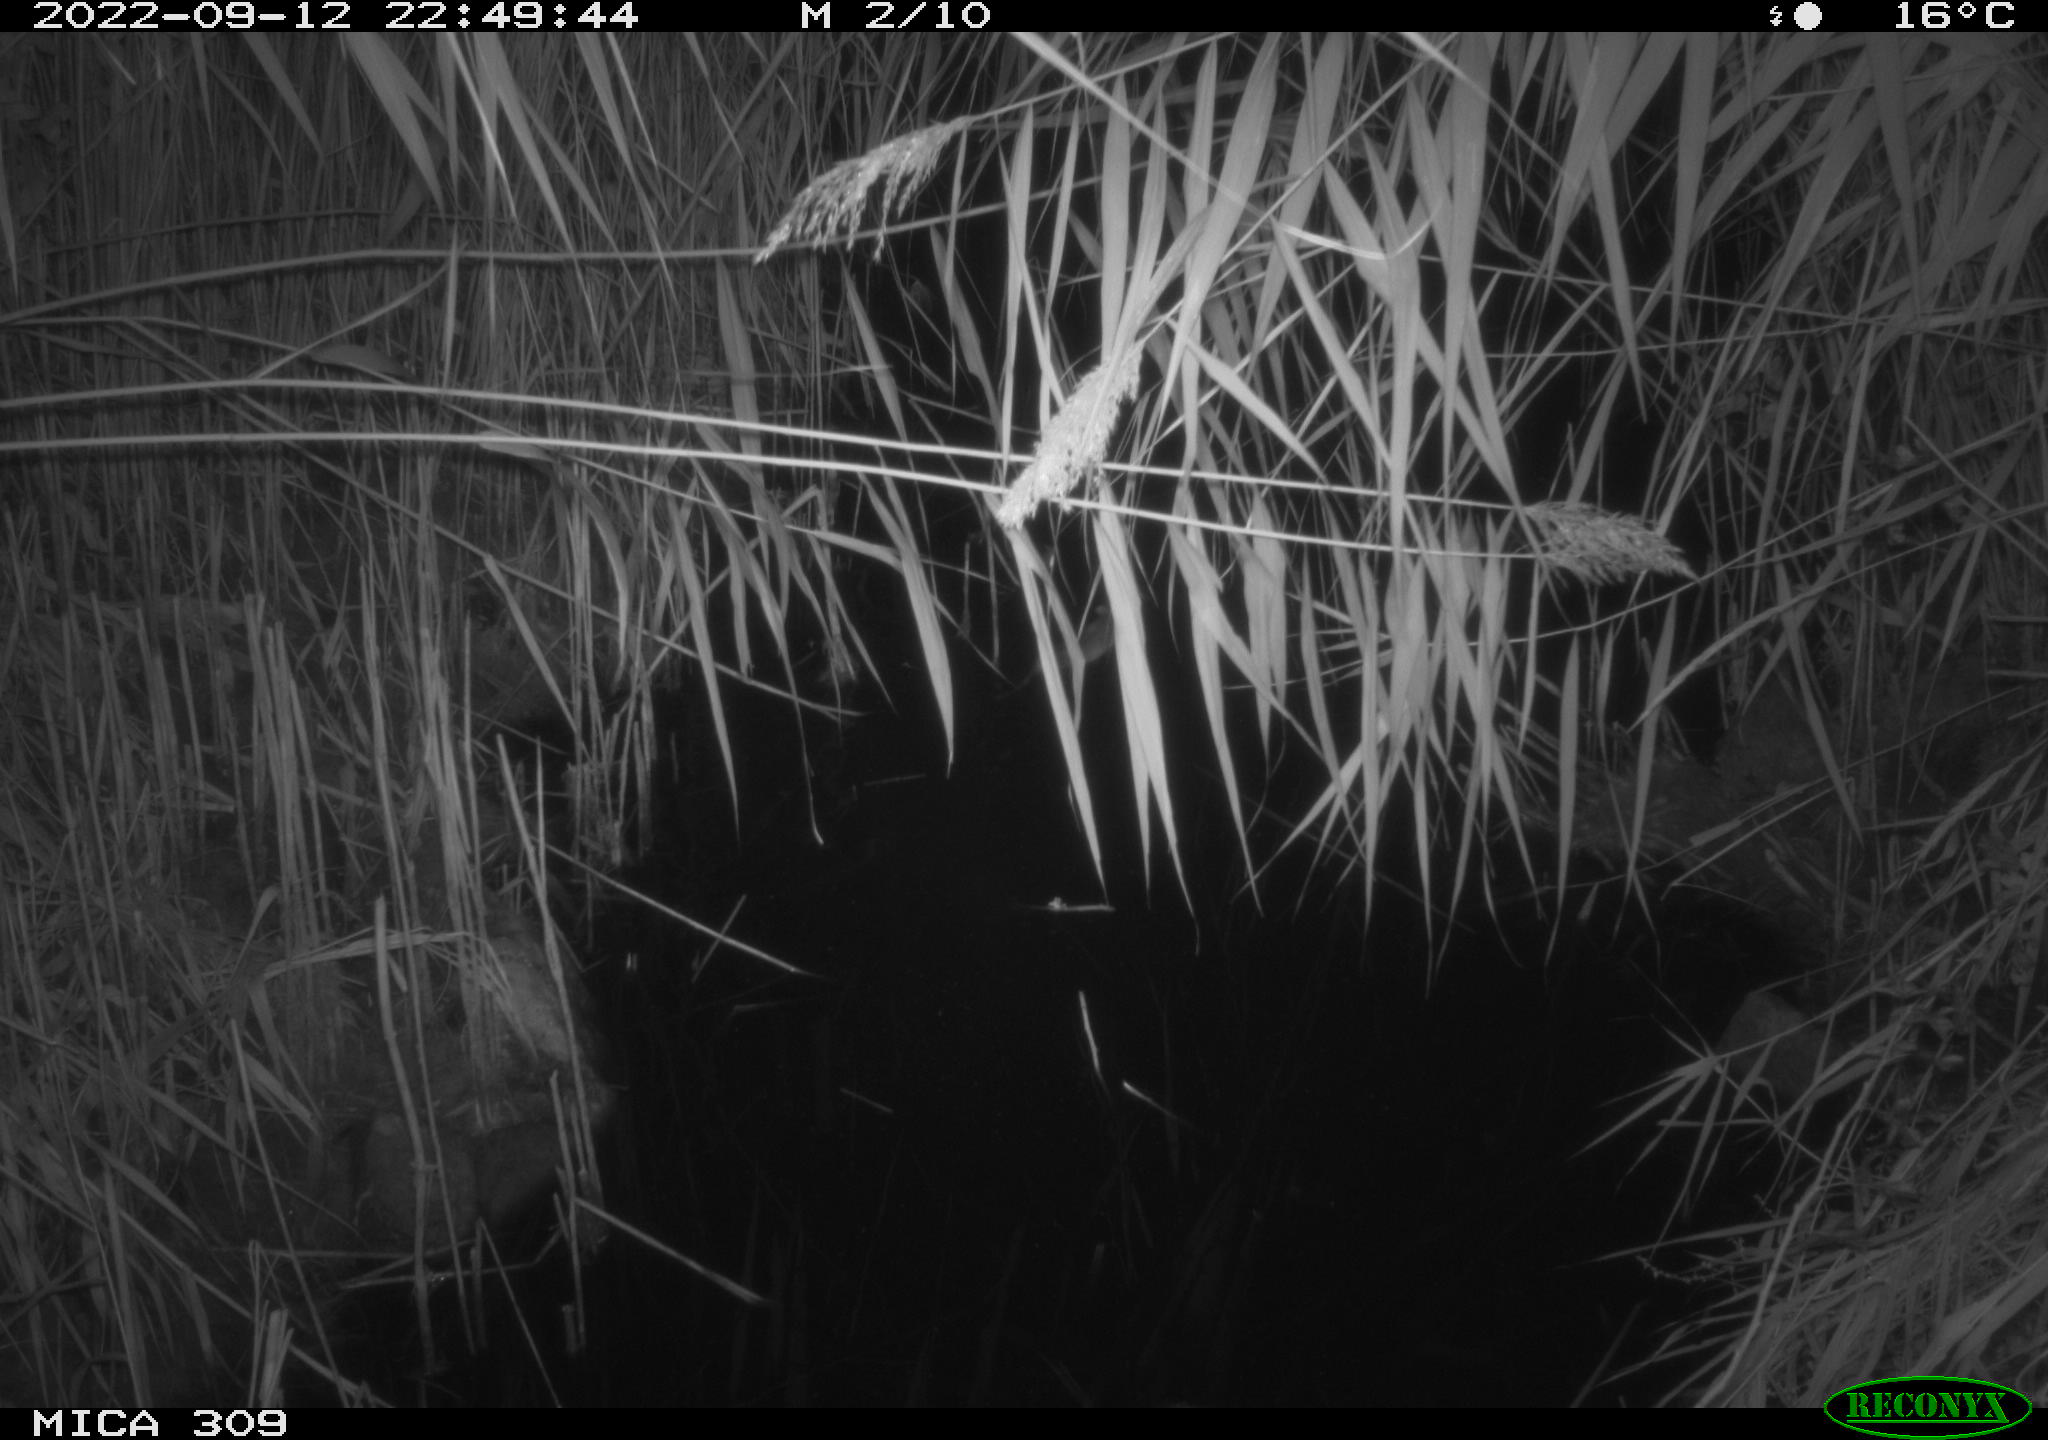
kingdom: Animalia
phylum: Chordata
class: Mammalia
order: Rodentia
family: Muridae
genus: Rattus
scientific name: Rattus norvegicus
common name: Brown rat
